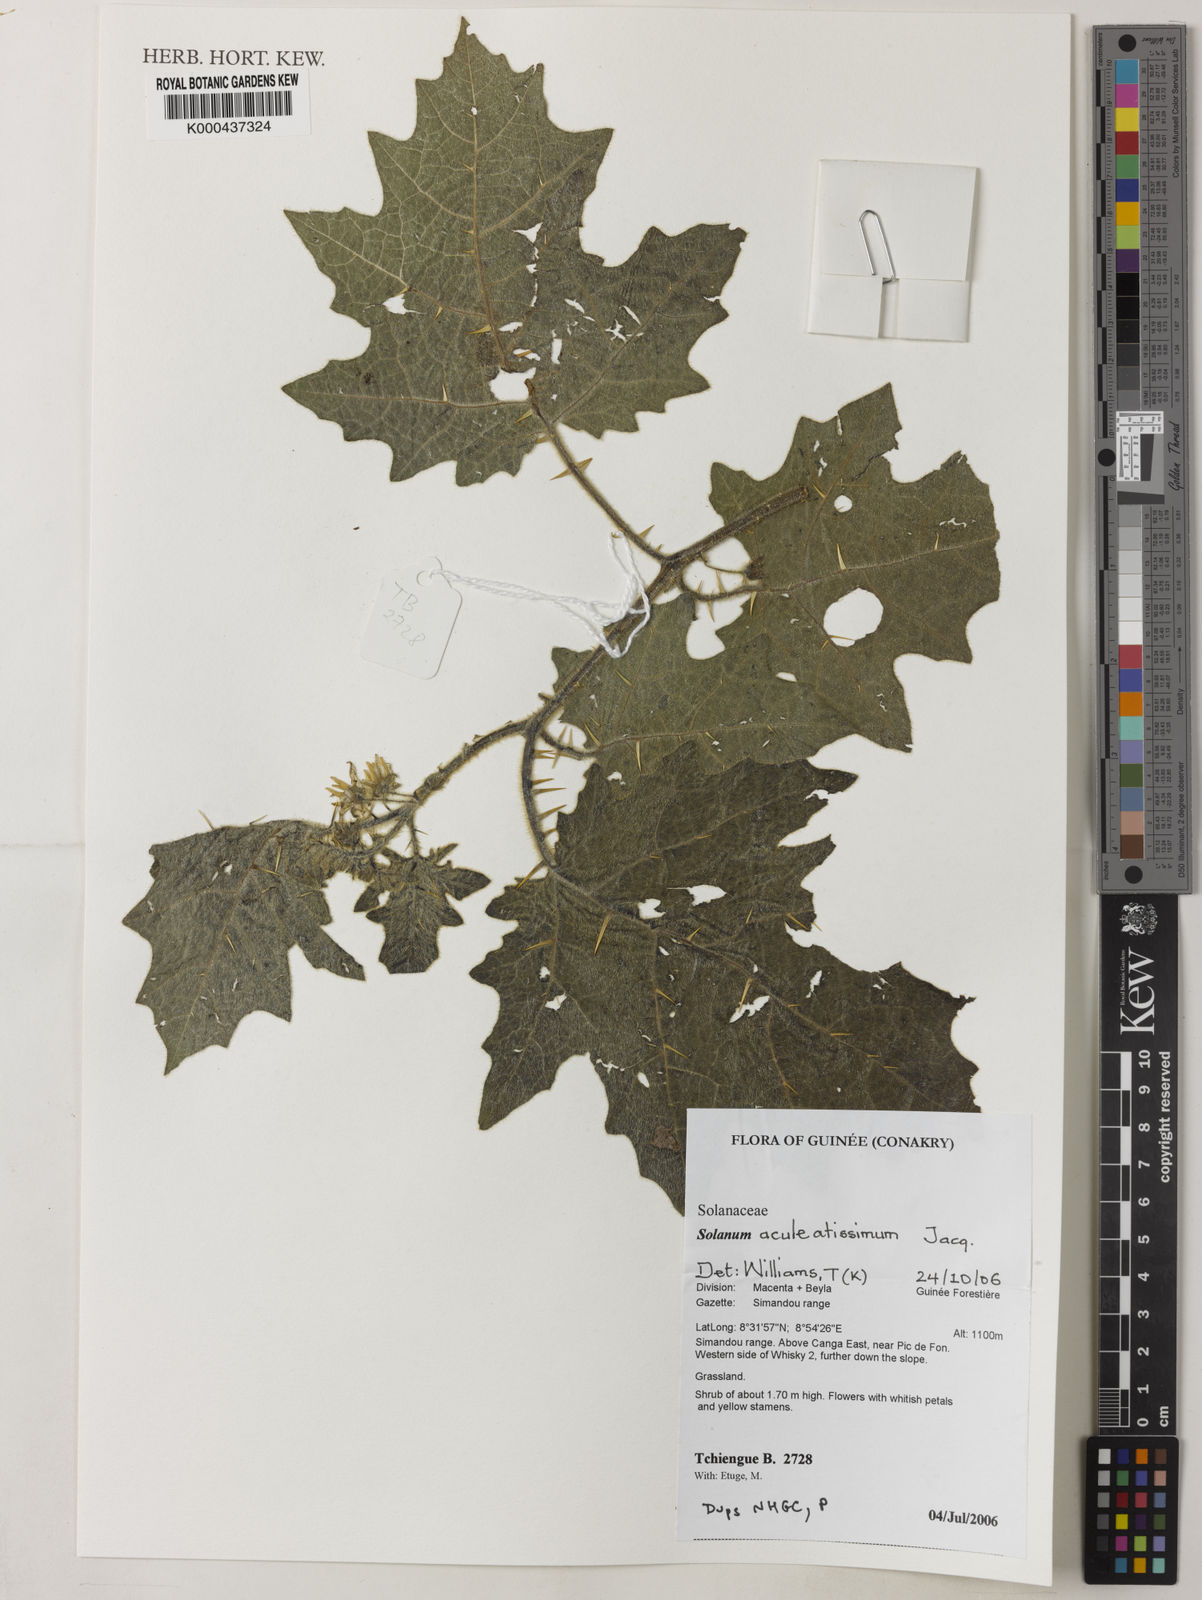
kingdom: Plantae
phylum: Tracheophyta
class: Magnoliopsida
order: Solanales
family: Solanaceae
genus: Solanum
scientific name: Solanum aculeatissimum
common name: Dutch eggplant
